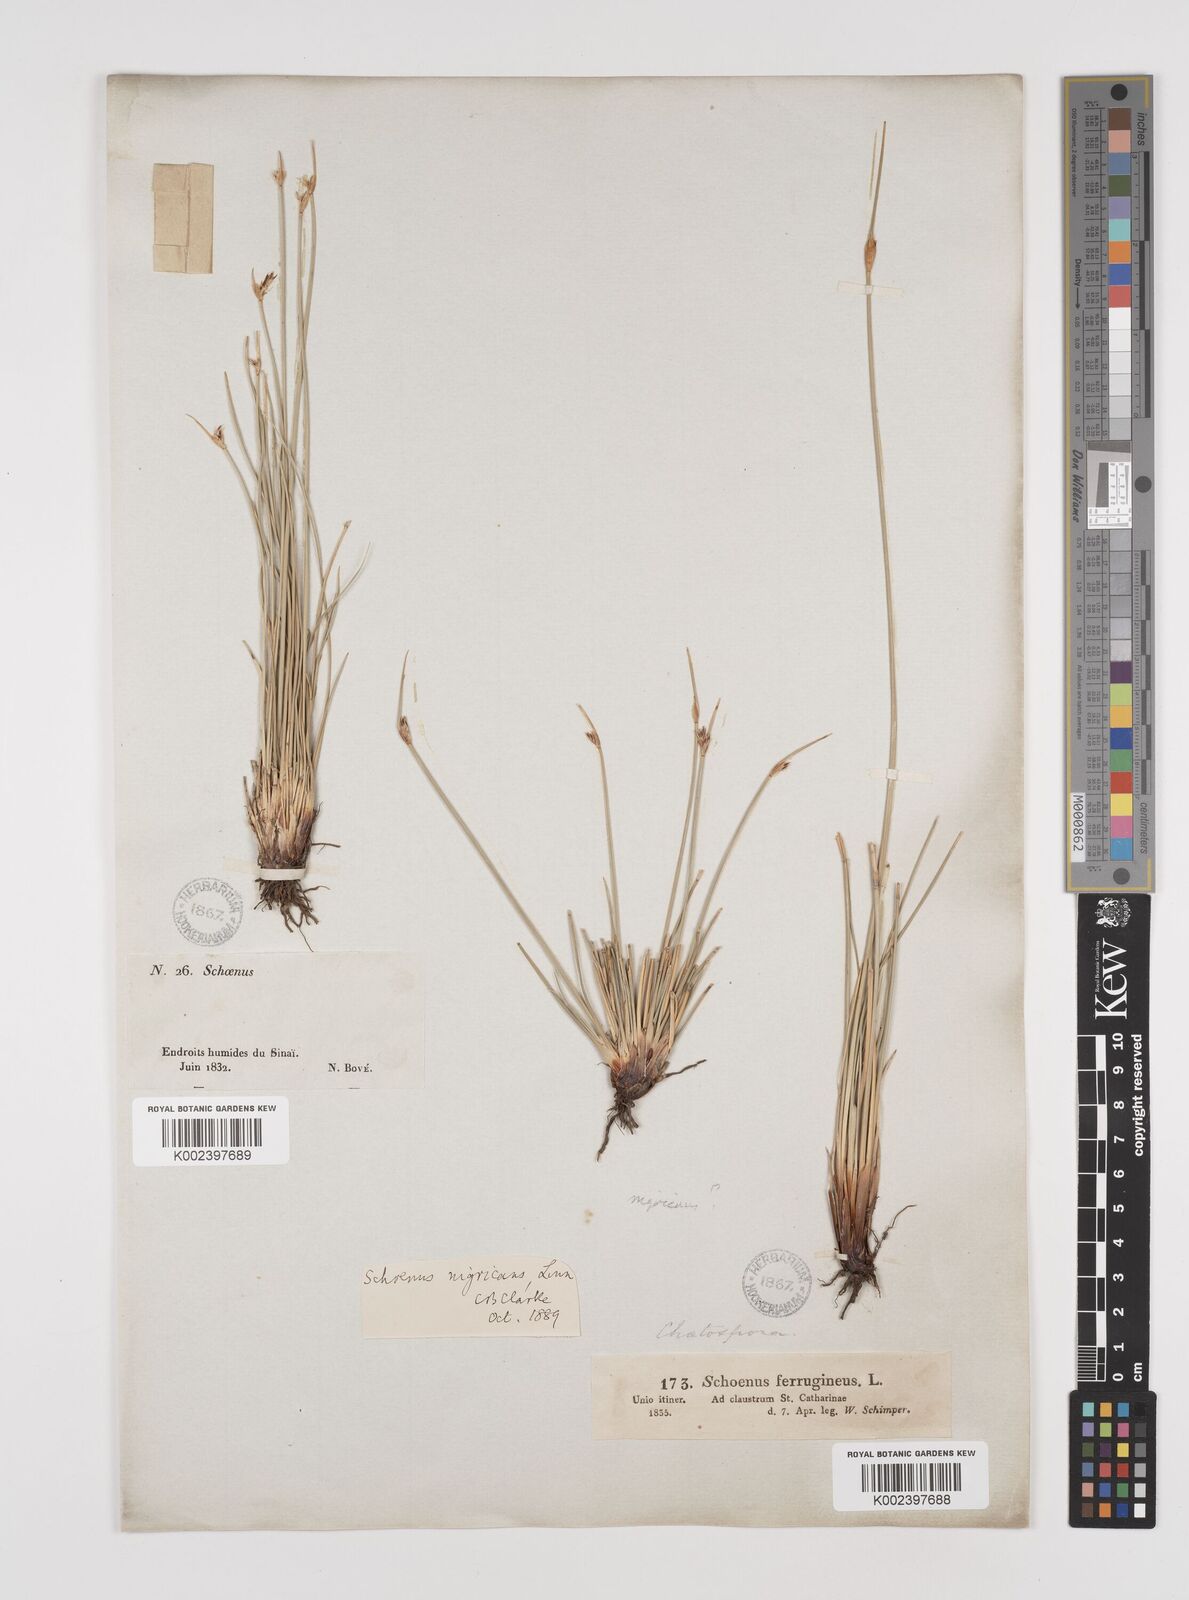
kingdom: Plantae
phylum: Tracheophyta
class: Liliopsida
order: Poales
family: Cyperaceae
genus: Schoenus
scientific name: Schoenus nigricans
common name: Black bog-rush
